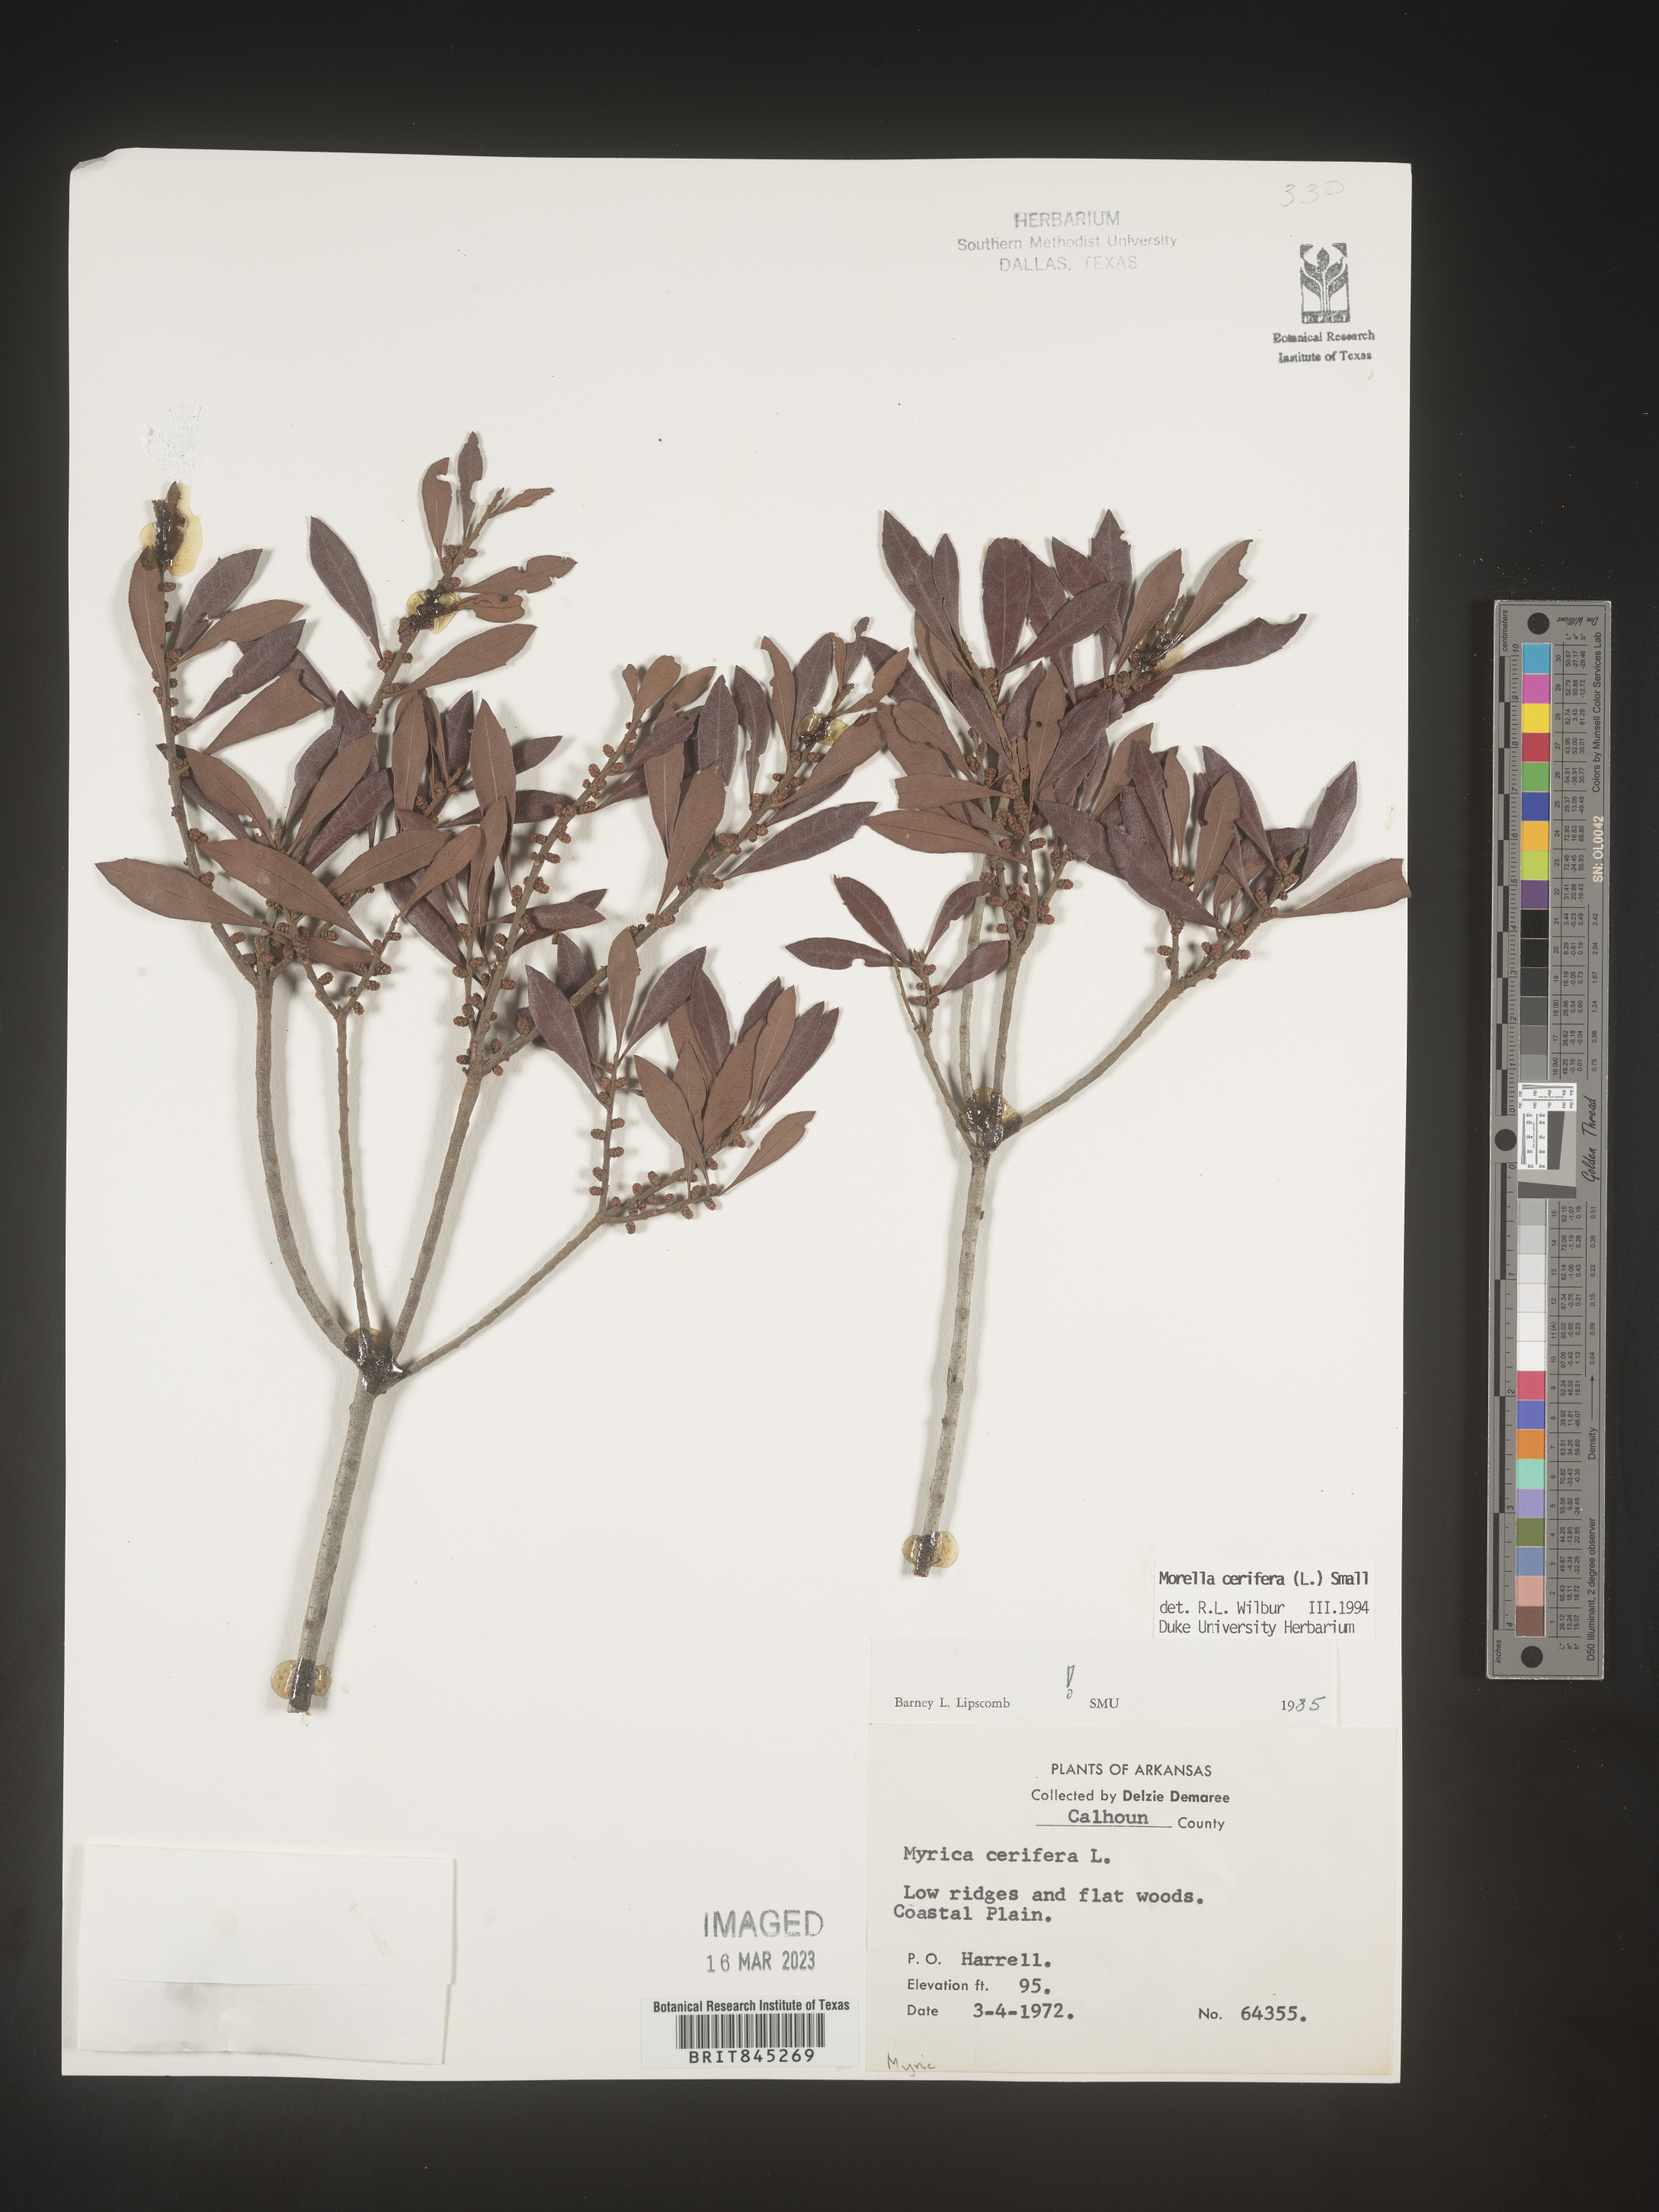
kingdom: Plantae
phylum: Tracheophyta
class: Magnoliopsida
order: Fagales
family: Myricaceae
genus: Morella
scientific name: Morella cerifera
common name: Wax myrtle
